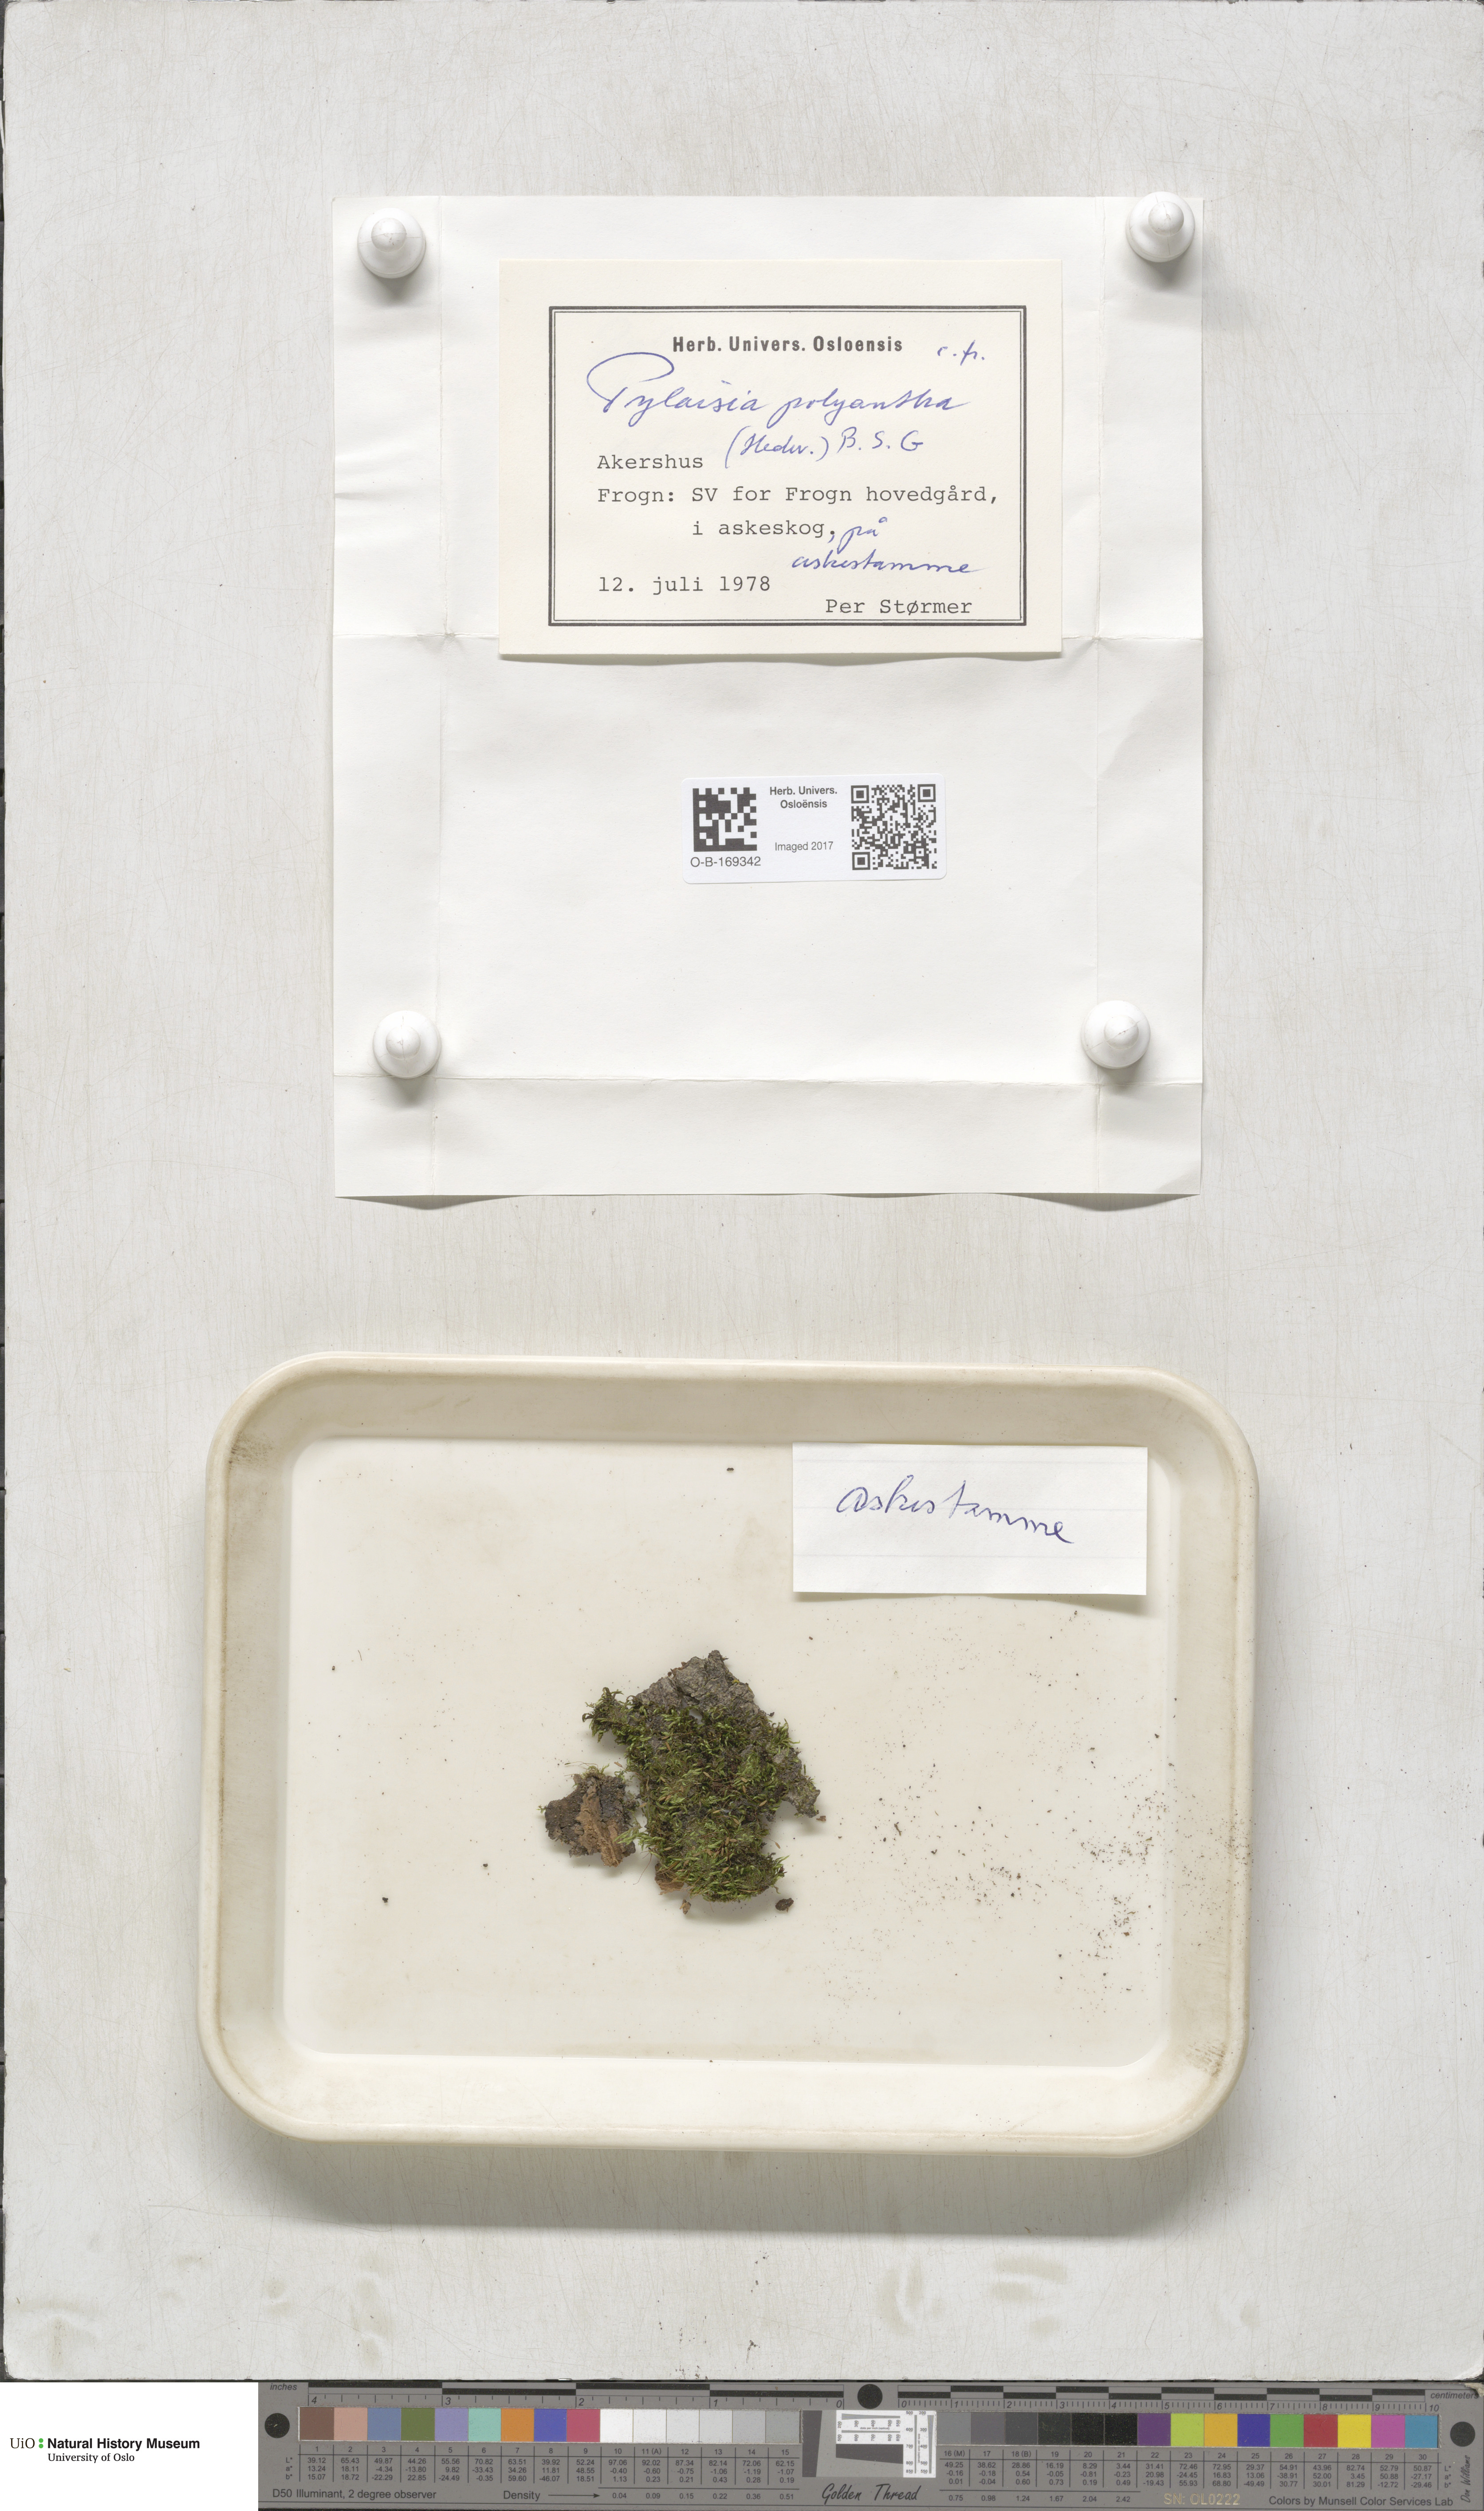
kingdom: Plantae
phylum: Bryophyta
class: Bryopsida
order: Hypnales
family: Pylaisiaceae
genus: Pylaisia
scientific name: Pylaisia polyantha
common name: Many-flowered leskea
